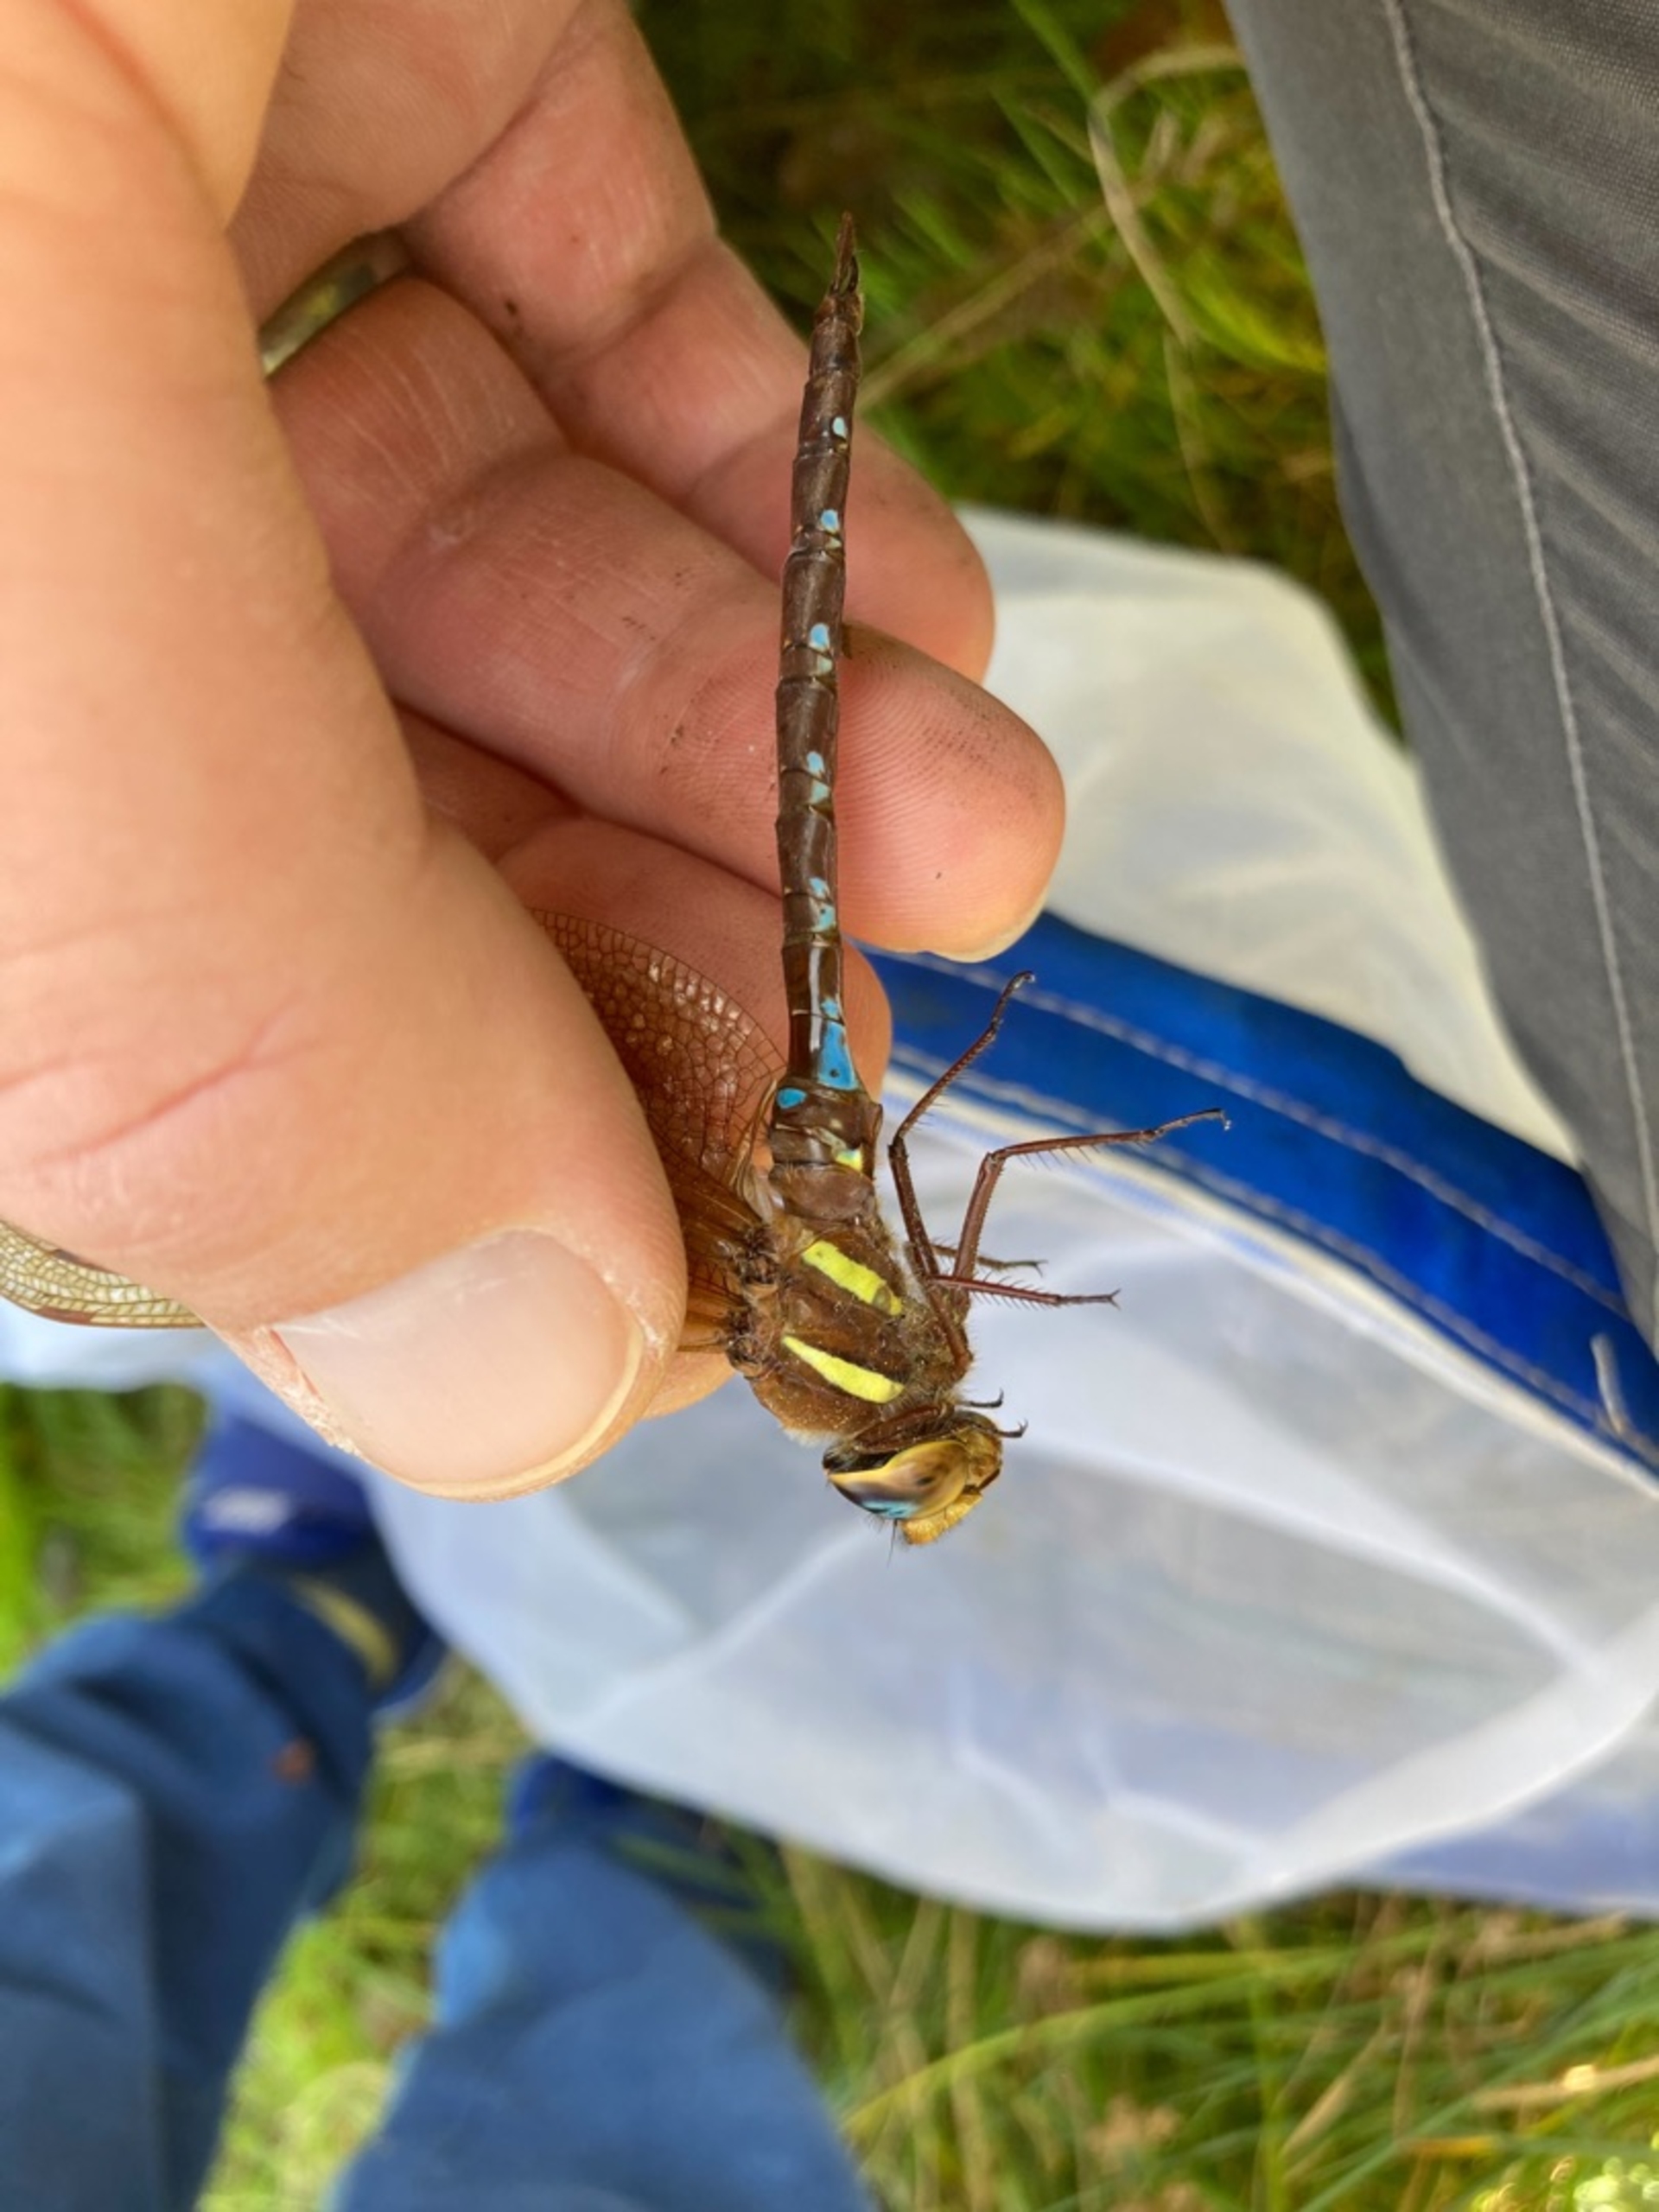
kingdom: Animalia
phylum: Arthropoda
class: Insecta
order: Odonata
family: Aeshnidae
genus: Aeshna
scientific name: Aeshna grandis
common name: Brun mosaikguldsmed
